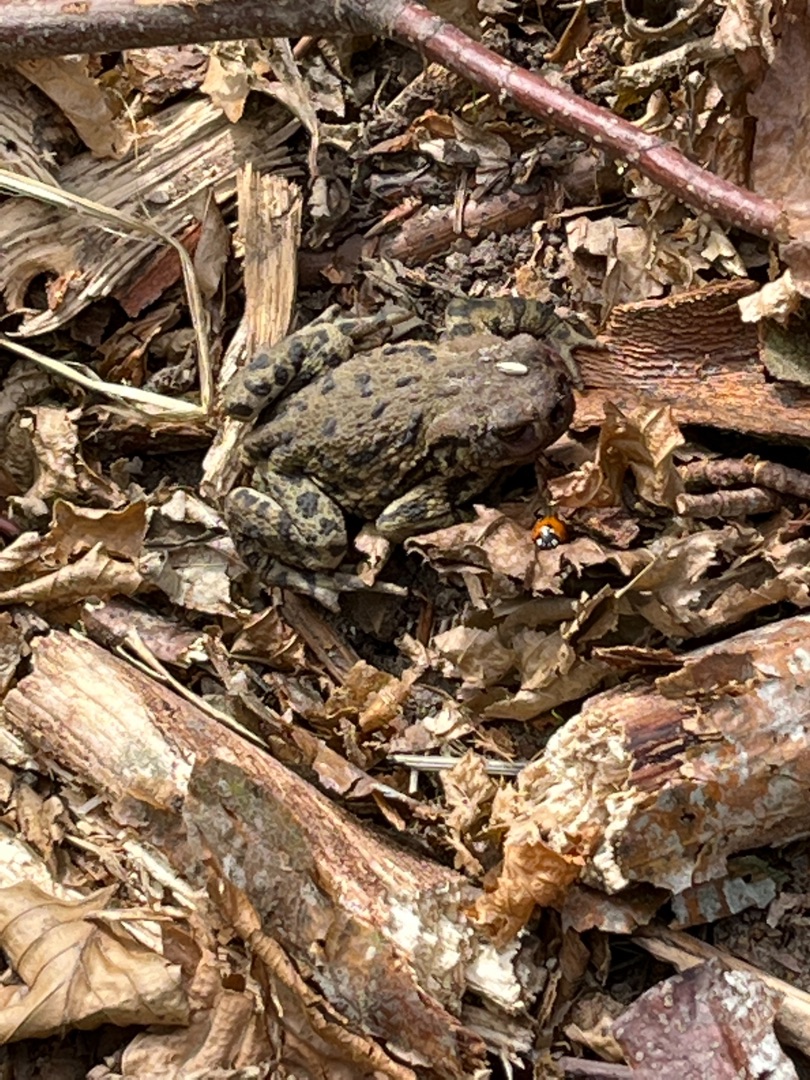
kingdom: Animalia
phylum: Chordata
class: Amphibia
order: Anura
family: Bufonidae
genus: Bufo
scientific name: Bufo bufo
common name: Skrubtudse
